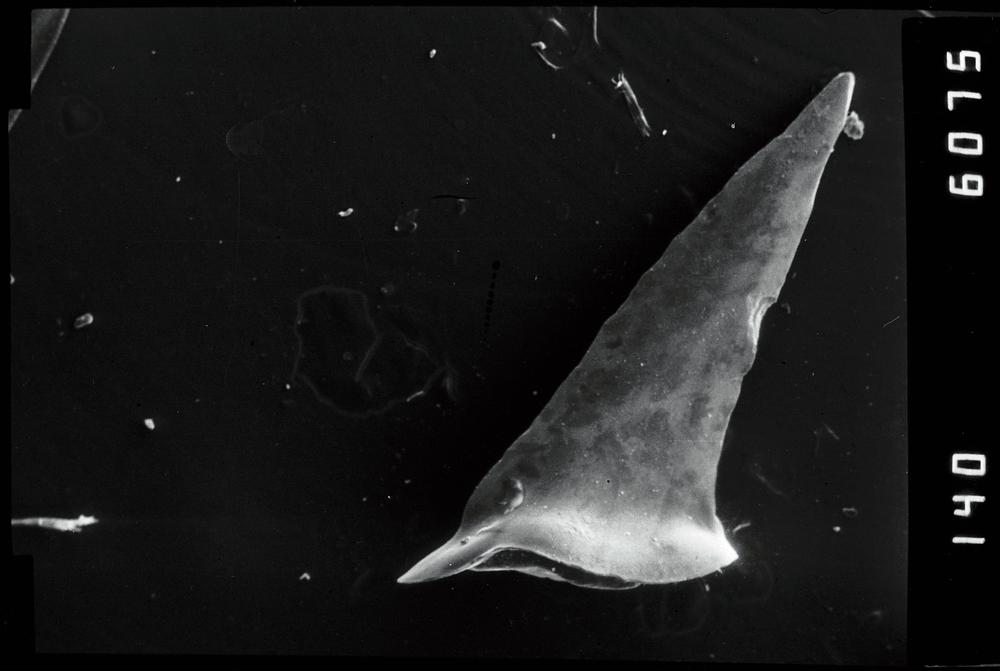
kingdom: Animalia
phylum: Chordata
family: Drepanoistodontidae
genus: Drepanoistodus
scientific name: Drepanoistodus
